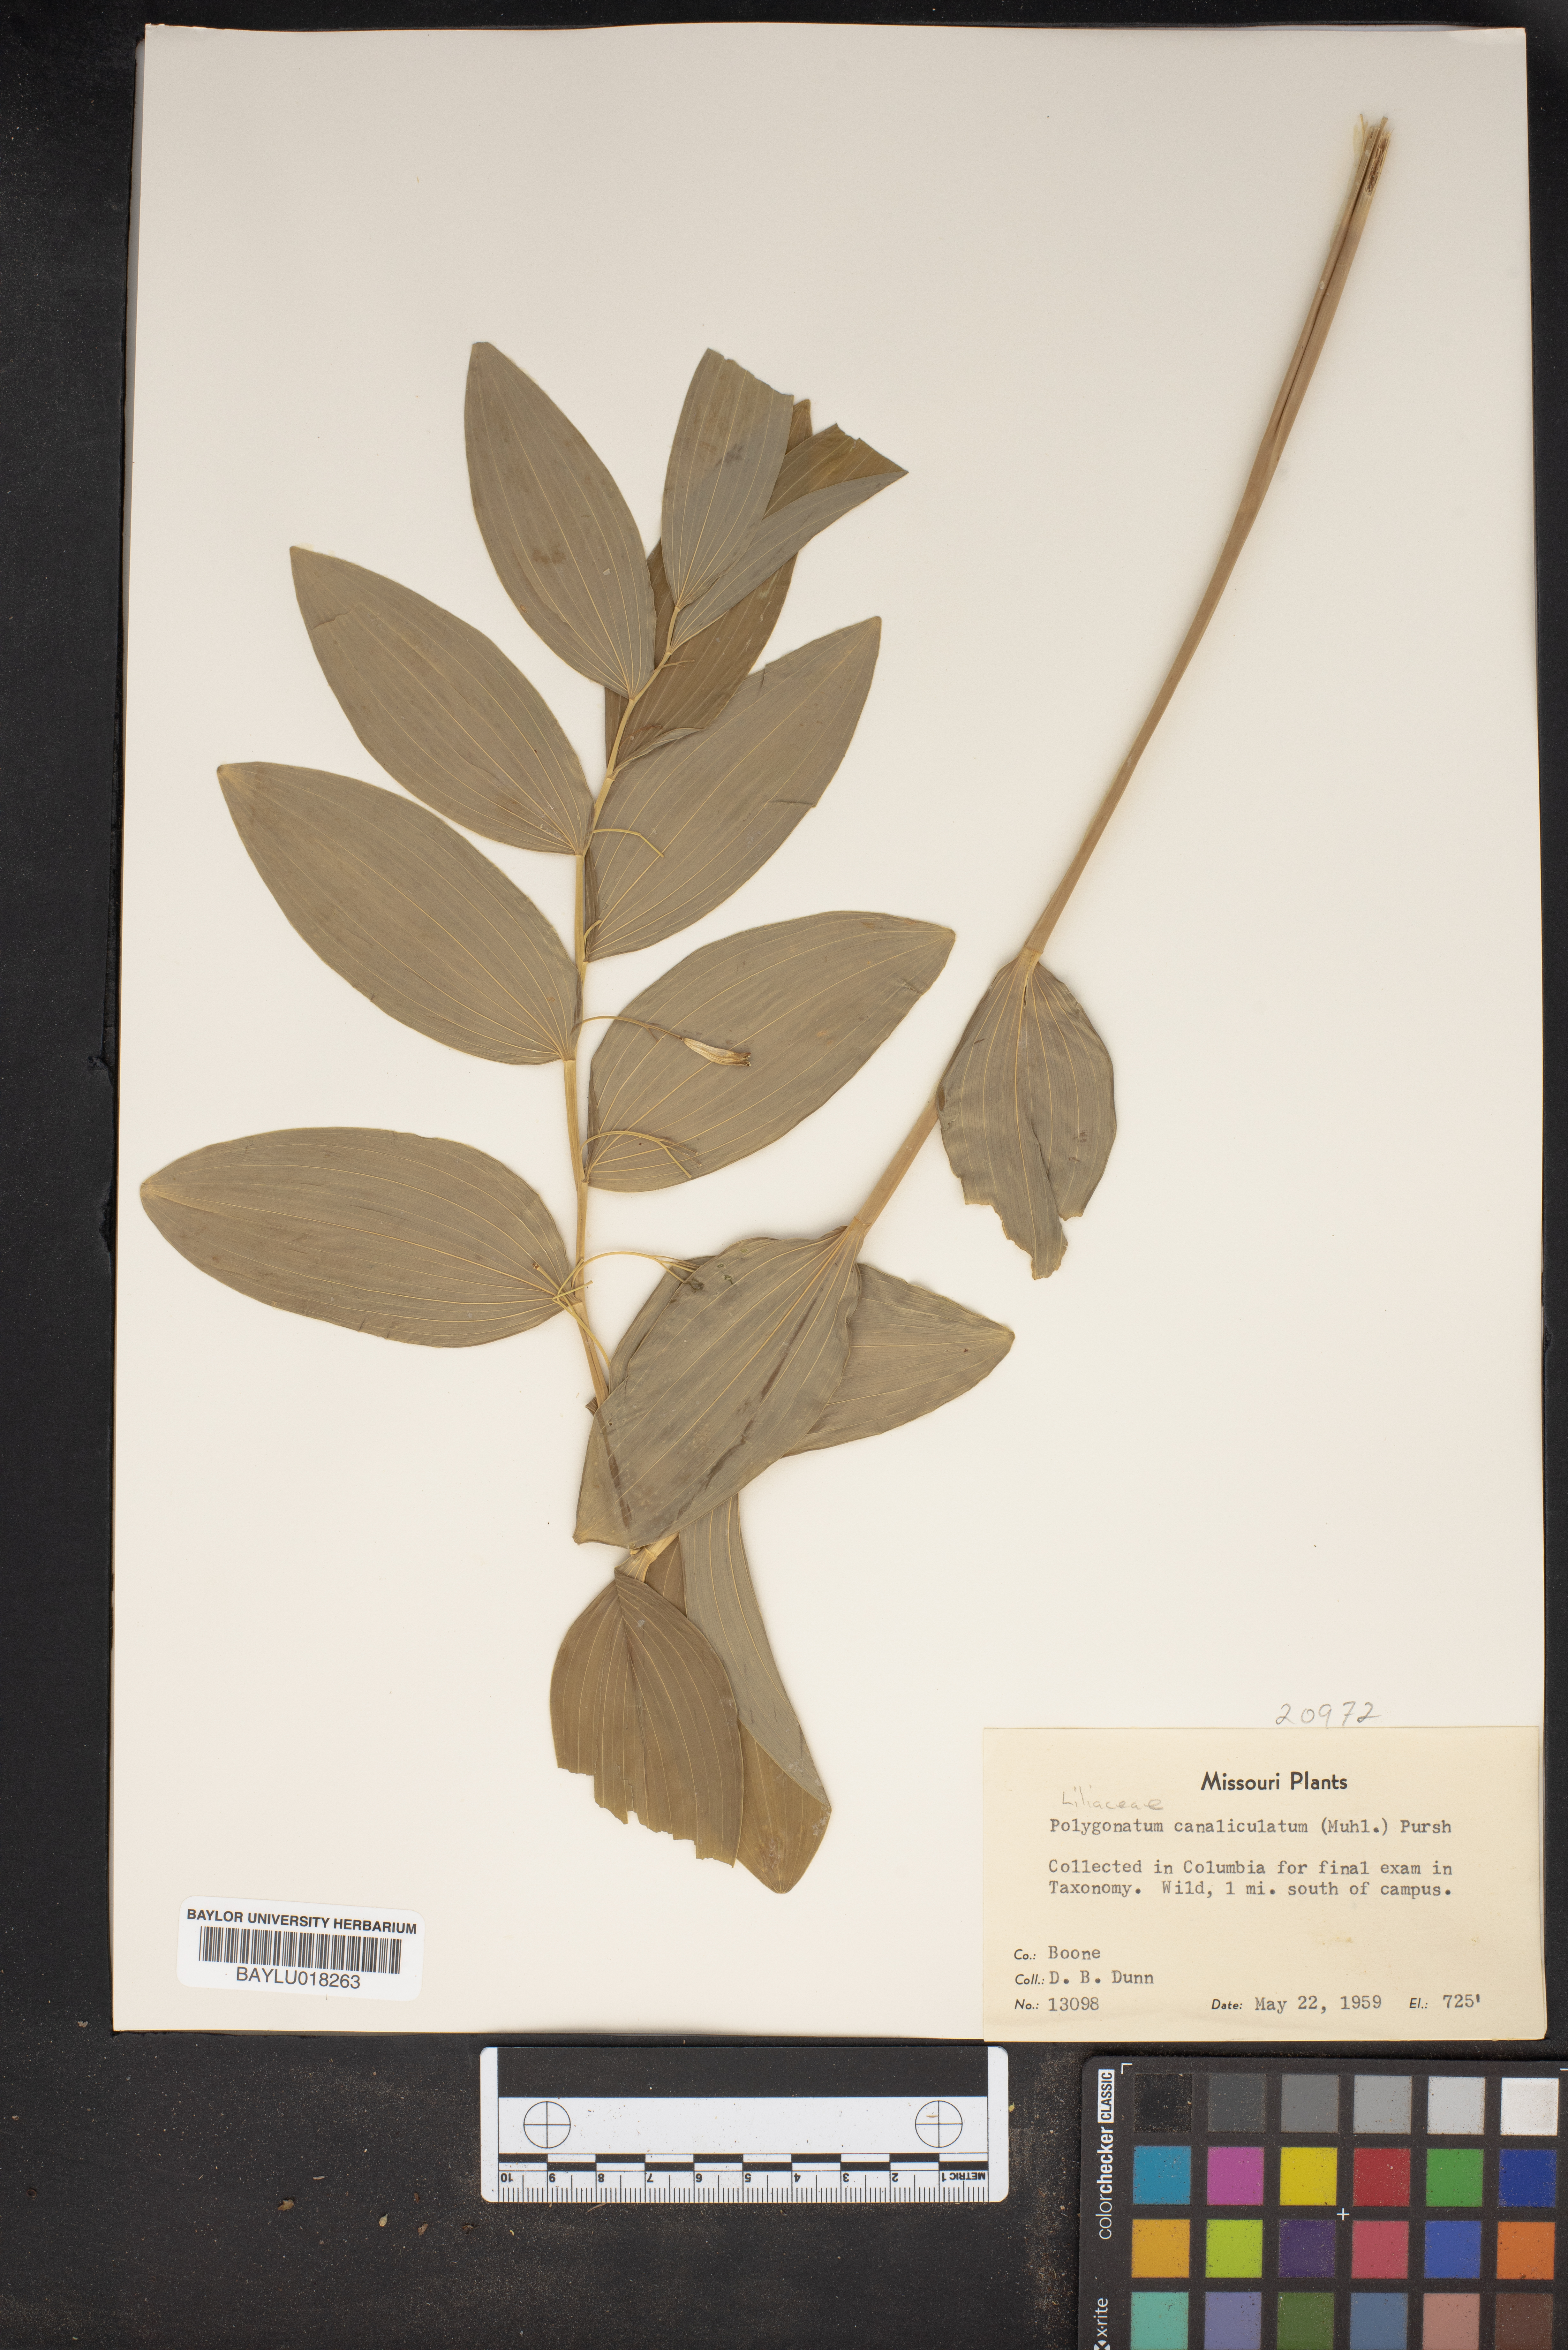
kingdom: Plantae
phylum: Tracheophyta
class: Liliopsida
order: Asparagales
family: Asparagaceae
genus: Polygonatum
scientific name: Polygonatum biflorum
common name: American solomon's-seal
